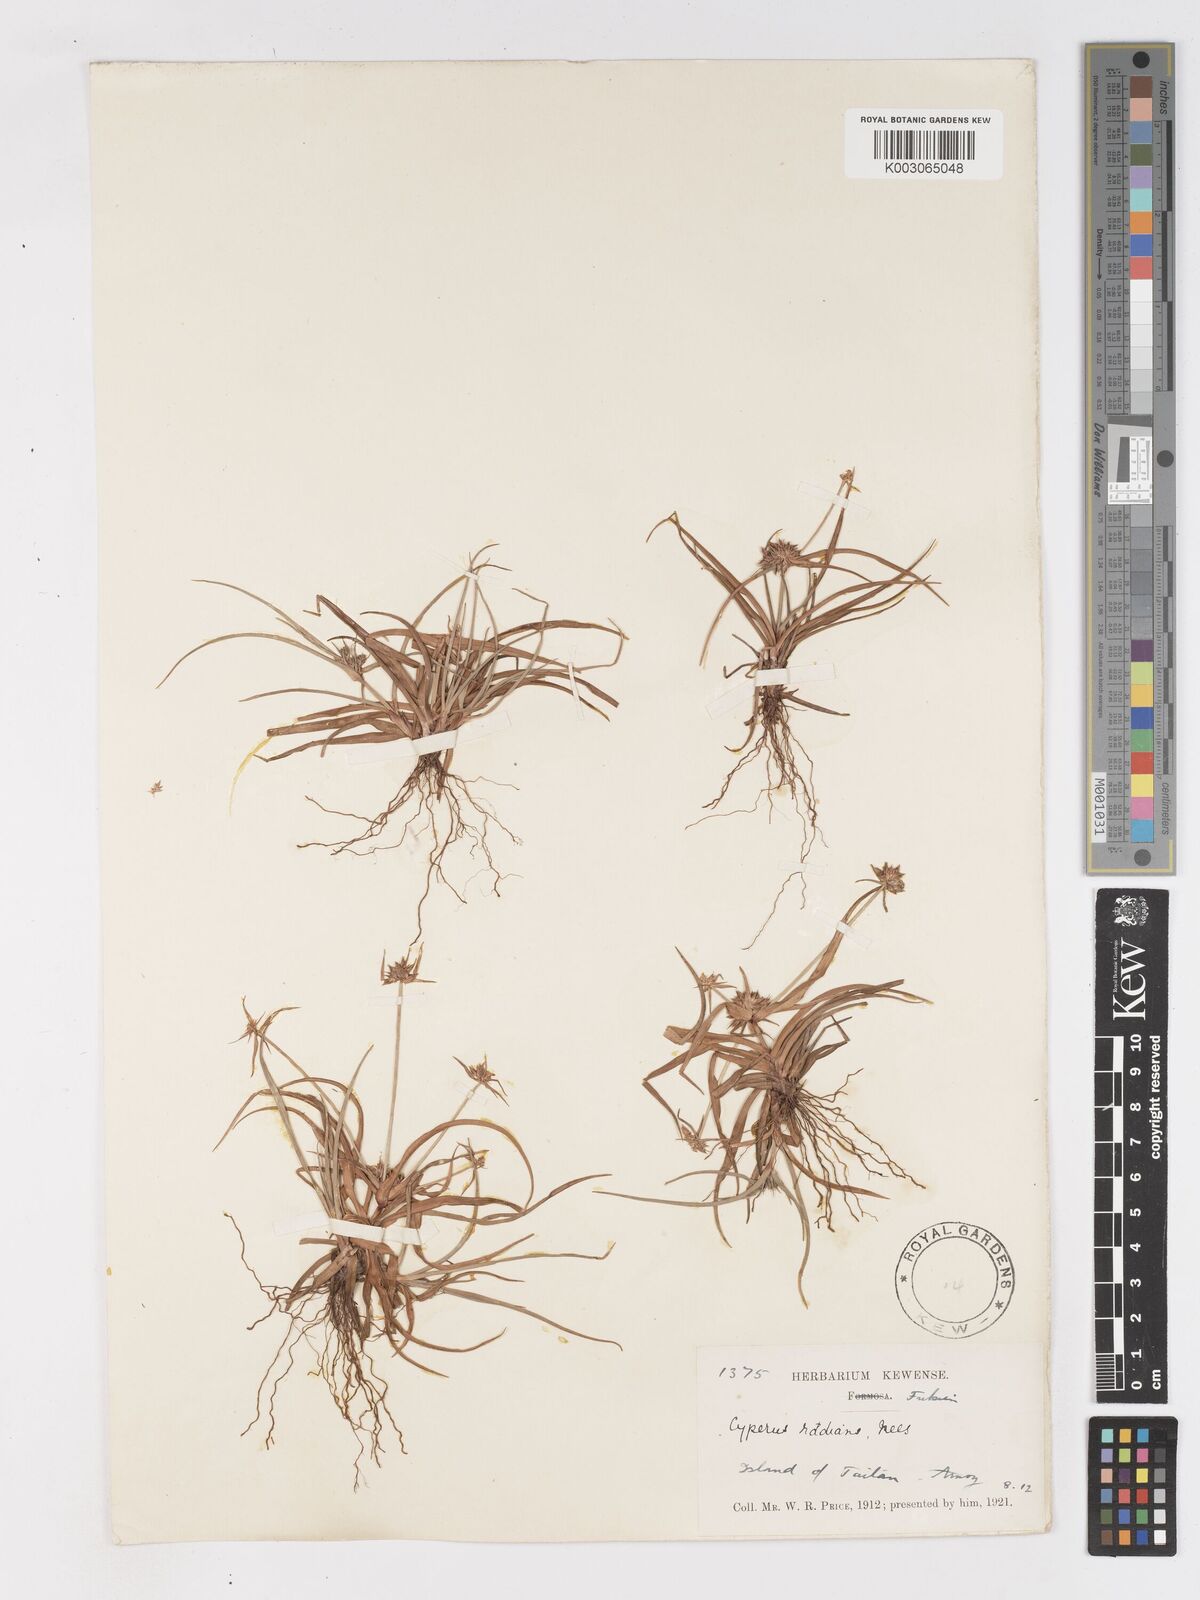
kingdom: Plantae
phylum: Tracheophyta
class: Liliopsida
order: Poales
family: Cyperaceae
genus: Cyperus
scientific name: Cyperus radians
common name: Short-stem cyperus
